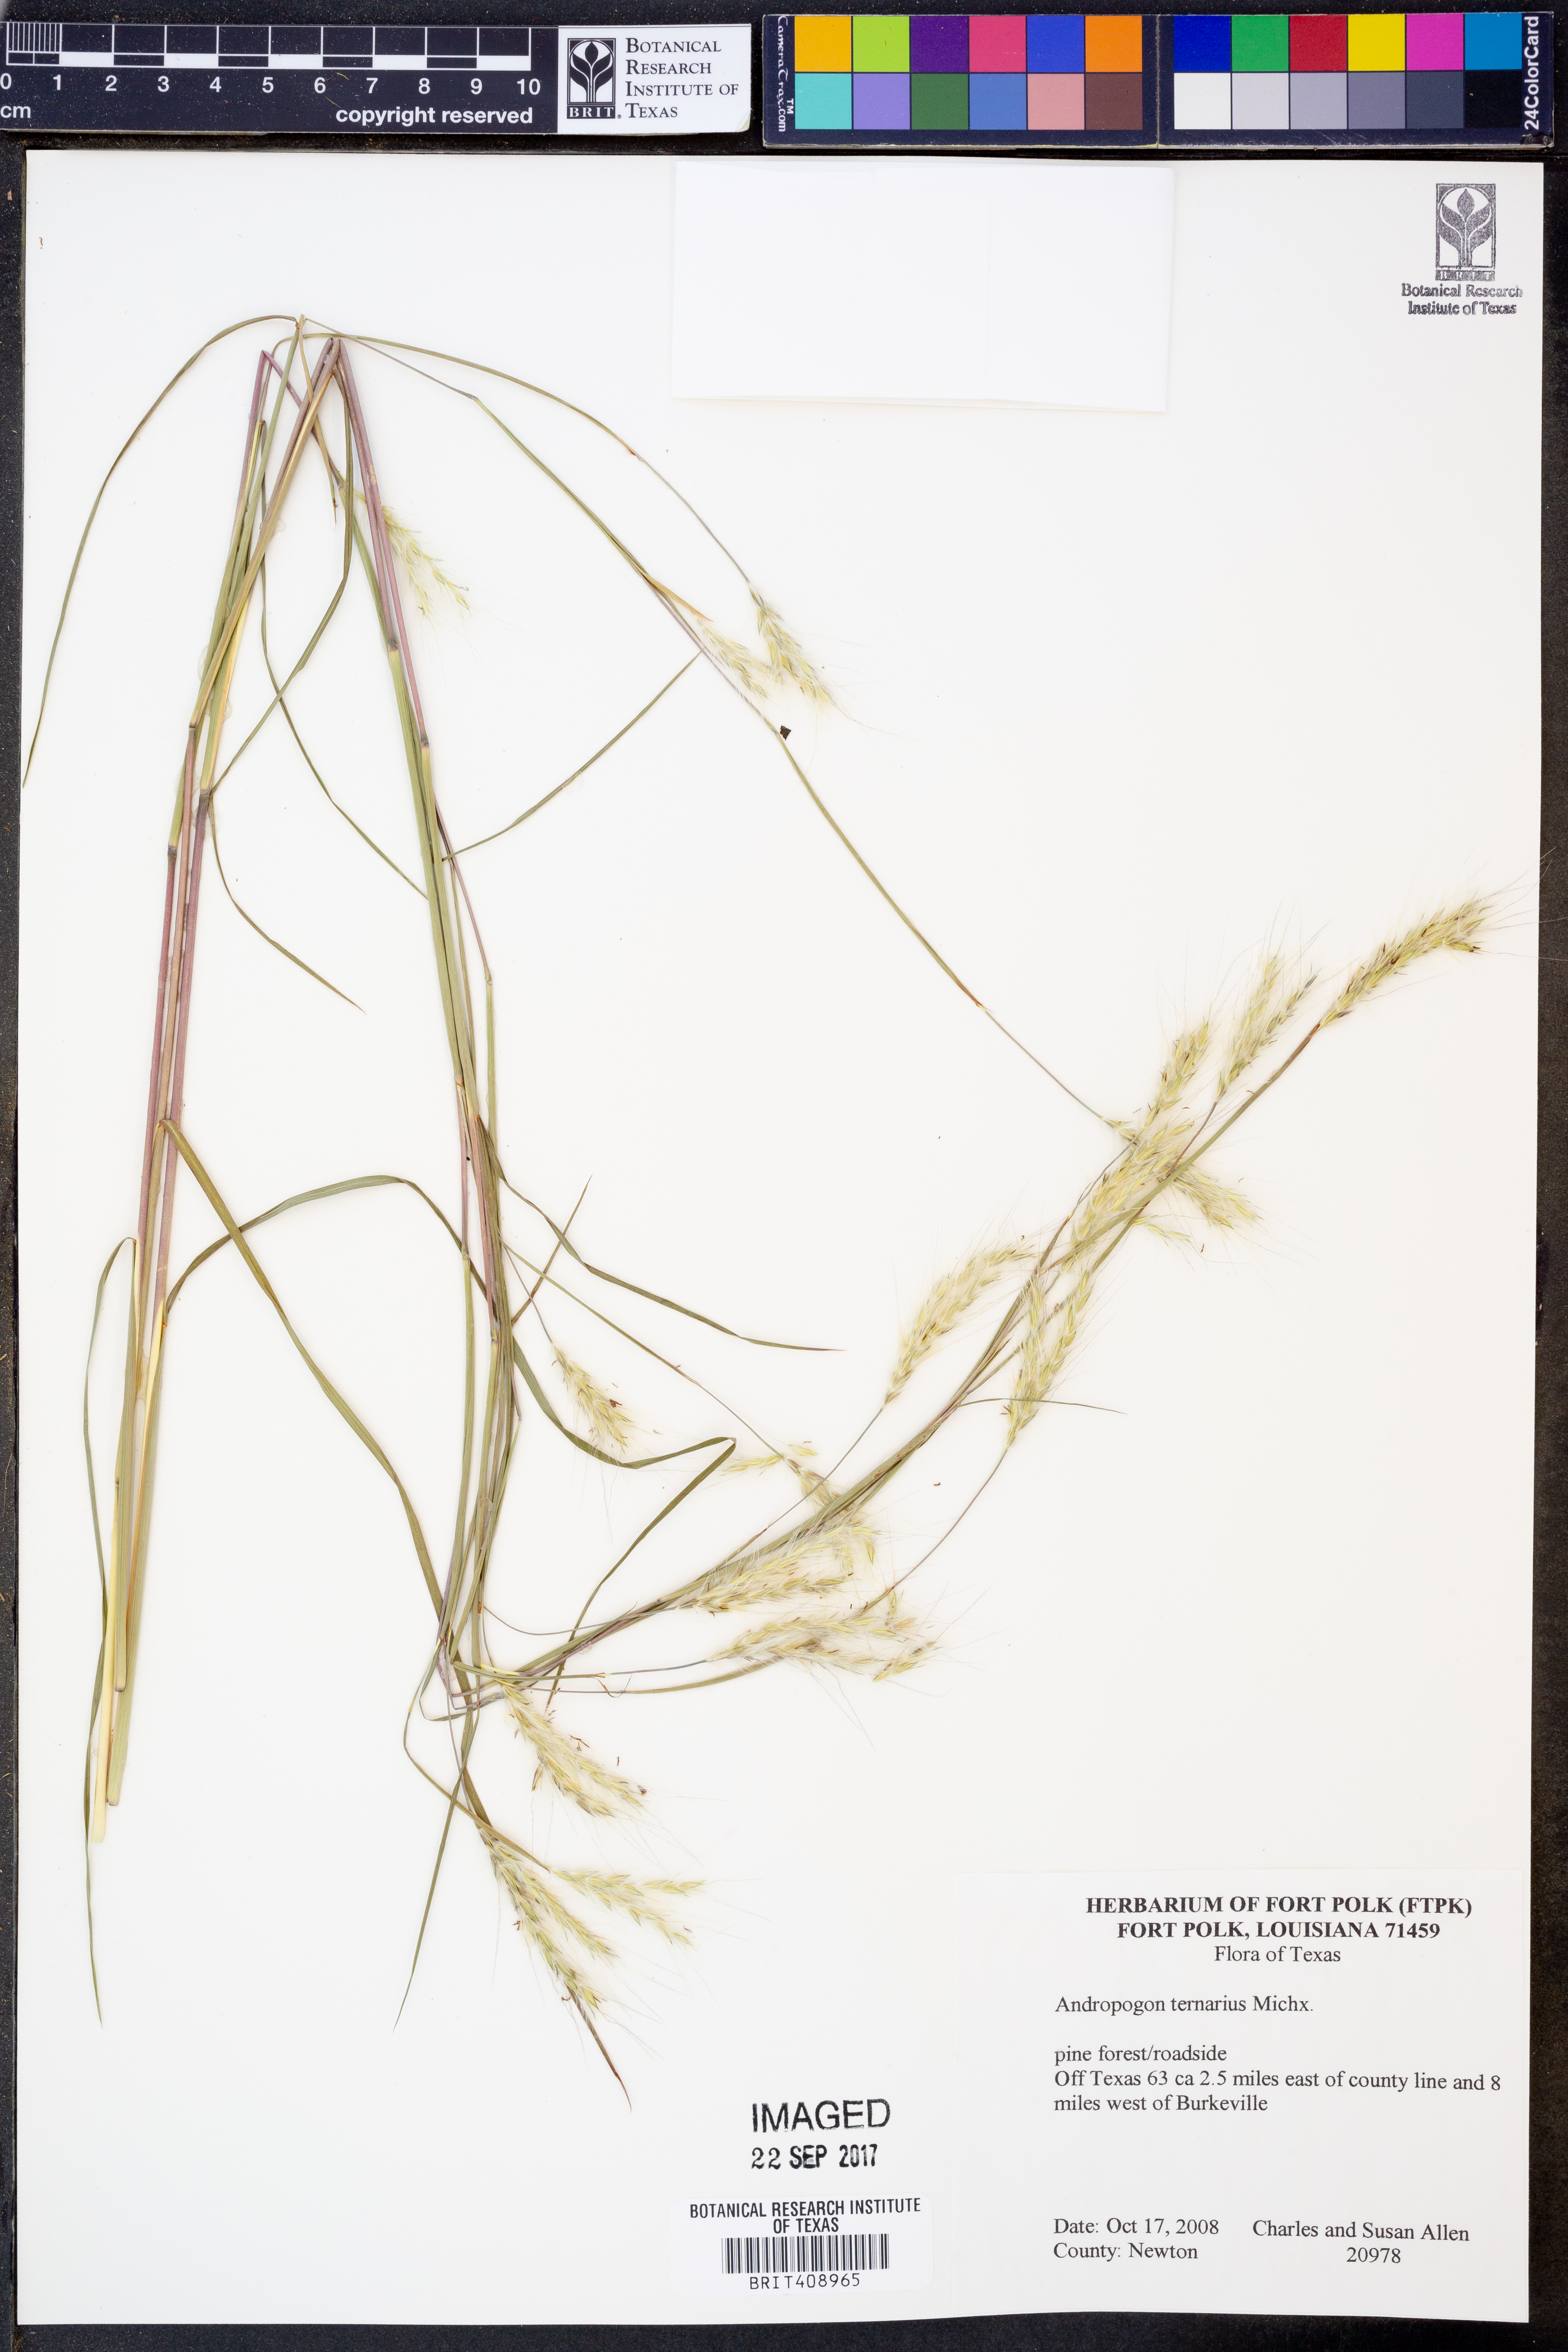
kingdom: Plantae
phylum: Tracheophyta
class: Liliopsida
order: Poales
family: Poaceae
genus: Andropogon
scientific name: Andropogon ternarius
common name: Split bluestem
